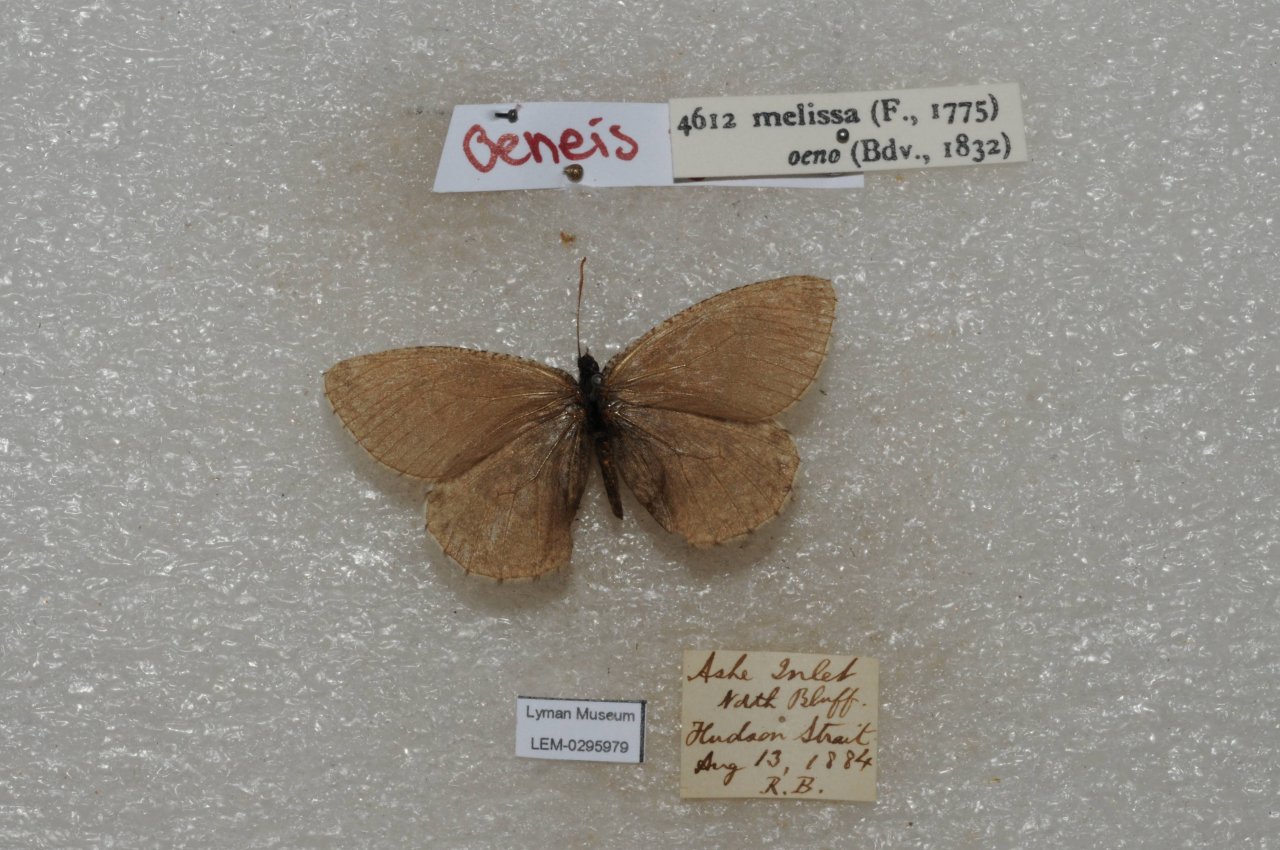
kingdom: Animalia
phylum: Arthropoda
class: Insecta
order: Lepidoptera
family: Nymphalidae
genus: Oeneis
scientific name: Oeneis melissa
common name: Melissa Arctic
